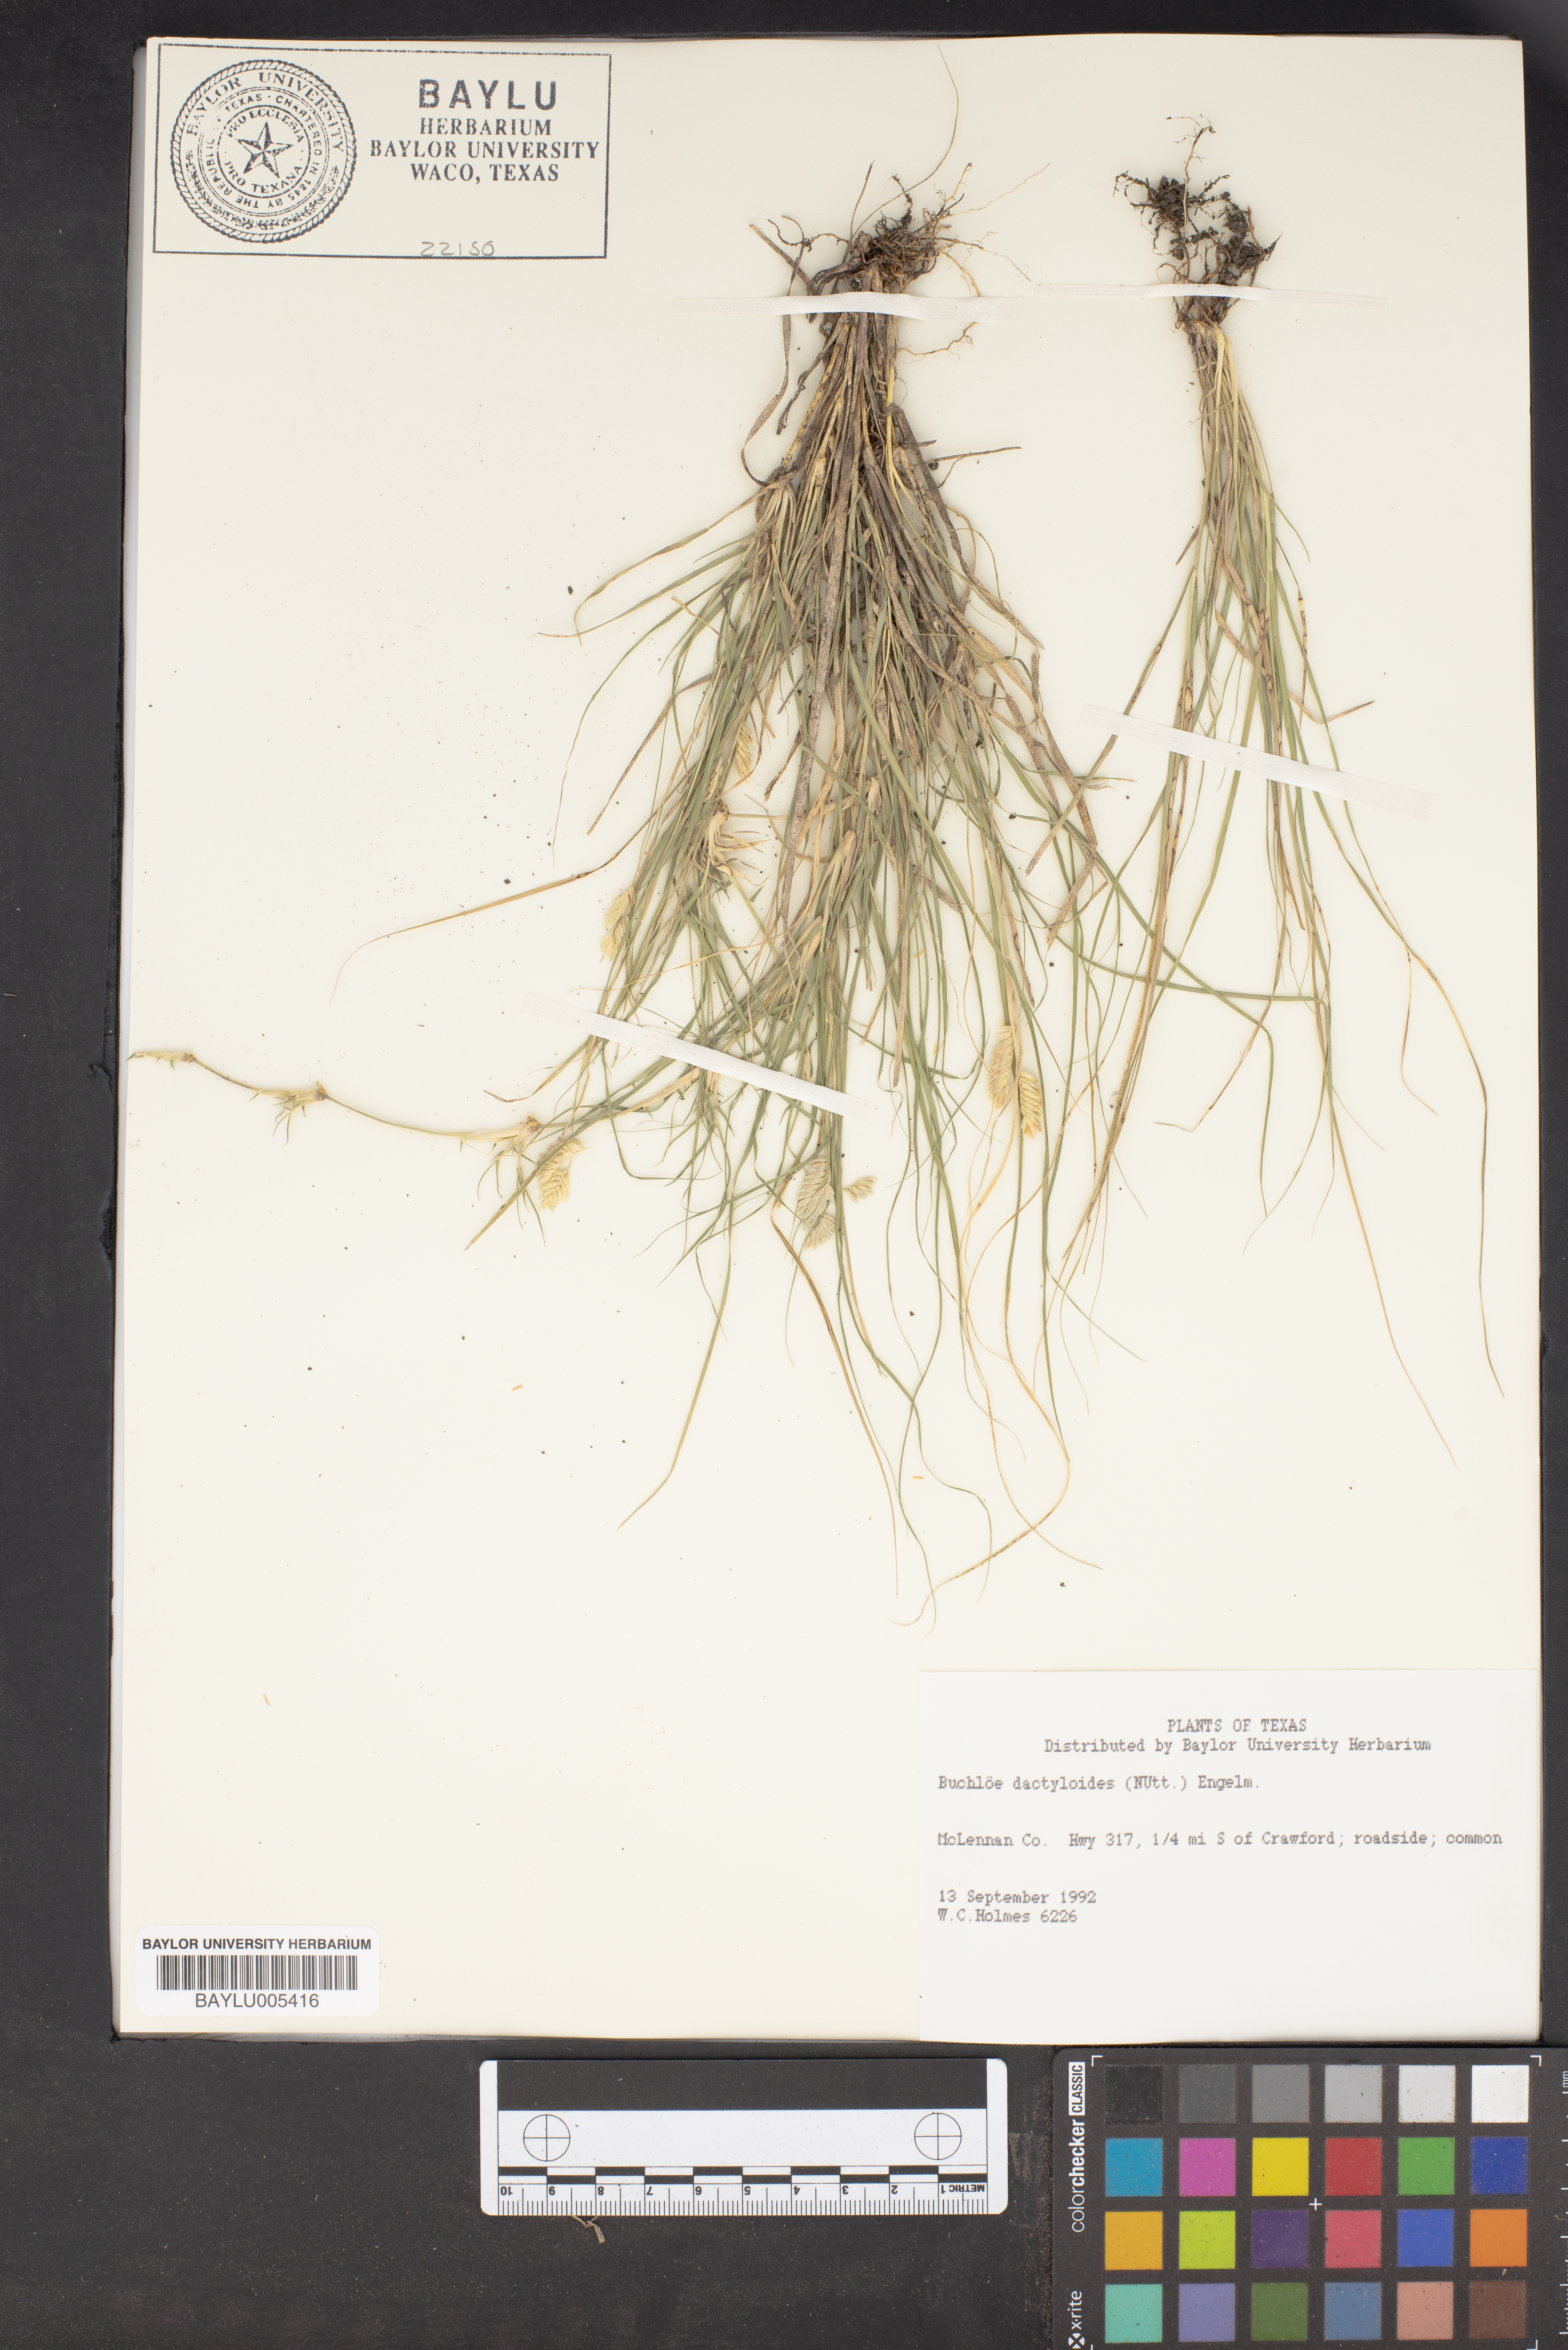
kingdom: Plantae
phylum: Tracheophyta
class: Liliopsida
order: Poales
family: Poaceae
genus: Bouteloua
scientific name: Bouteloua dactyloides
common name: Buffalo grass
